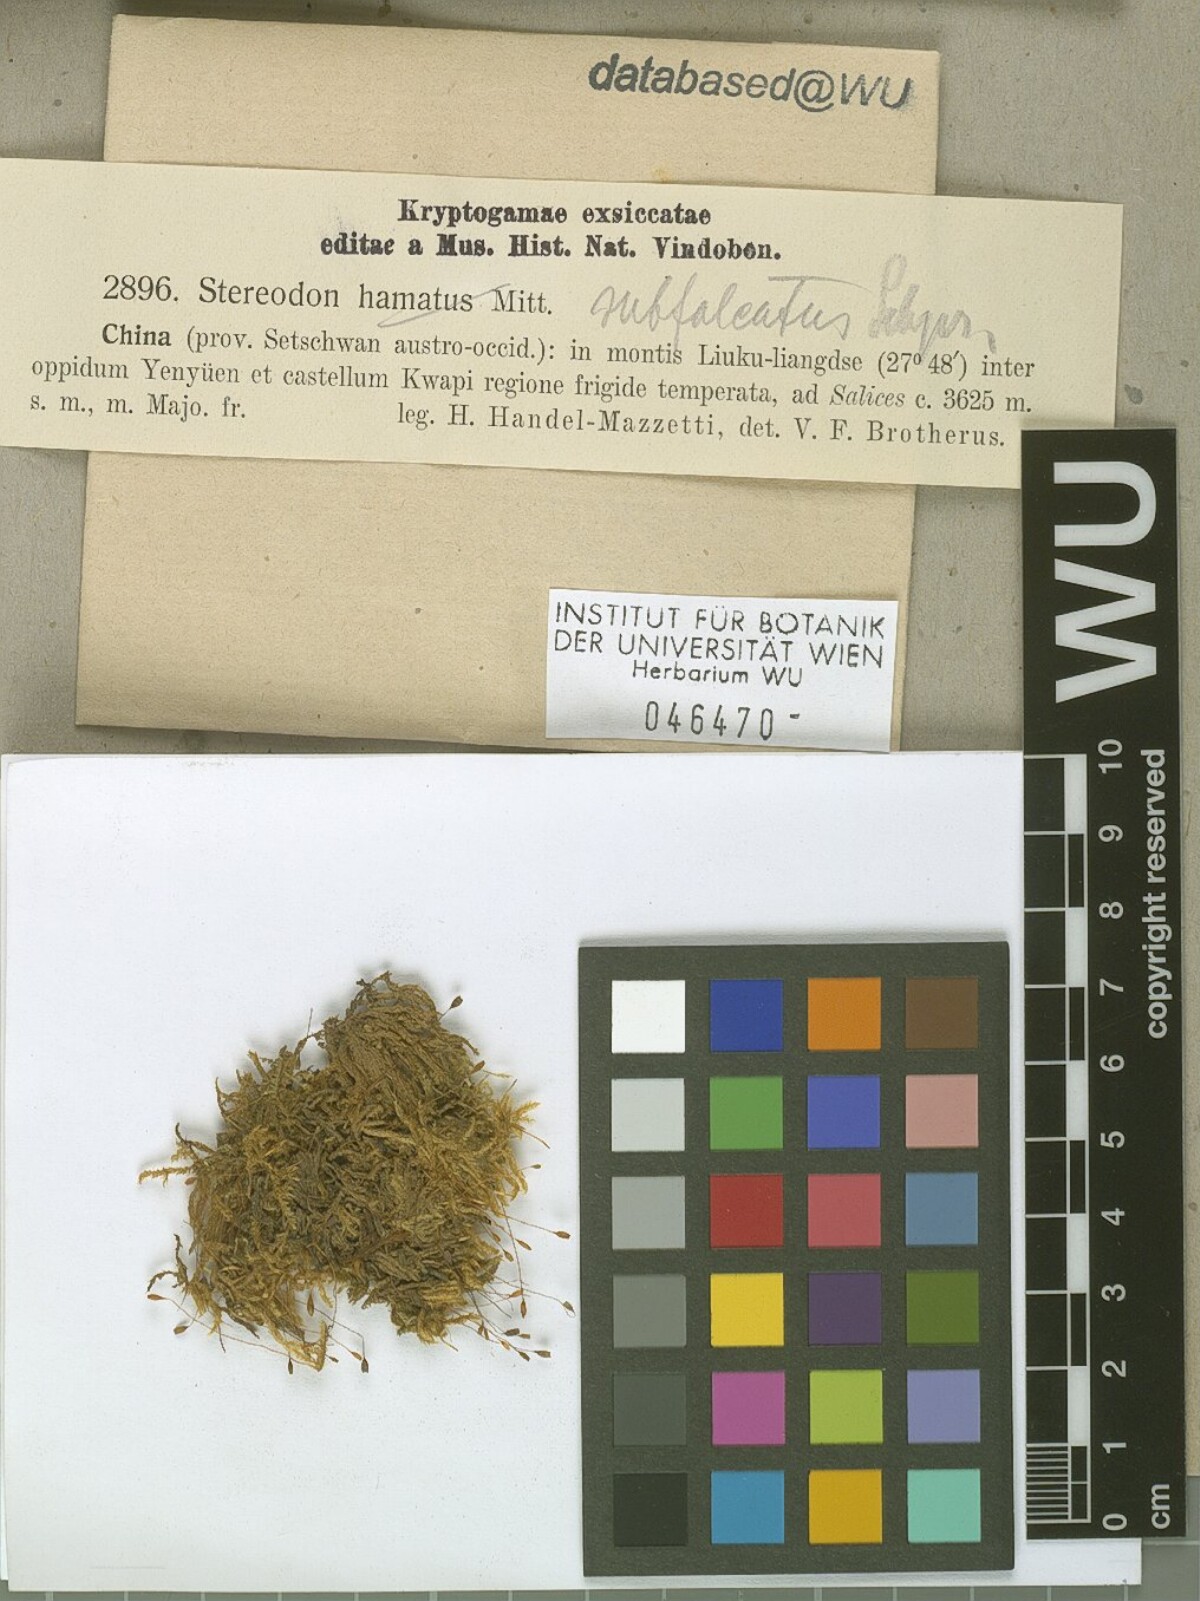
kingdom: Plantae
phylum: Bryophyta
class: Bryopsida
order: Hypnales
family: Pylaisiaceae
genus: Pylaisia
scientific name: Pylaisia falcata
